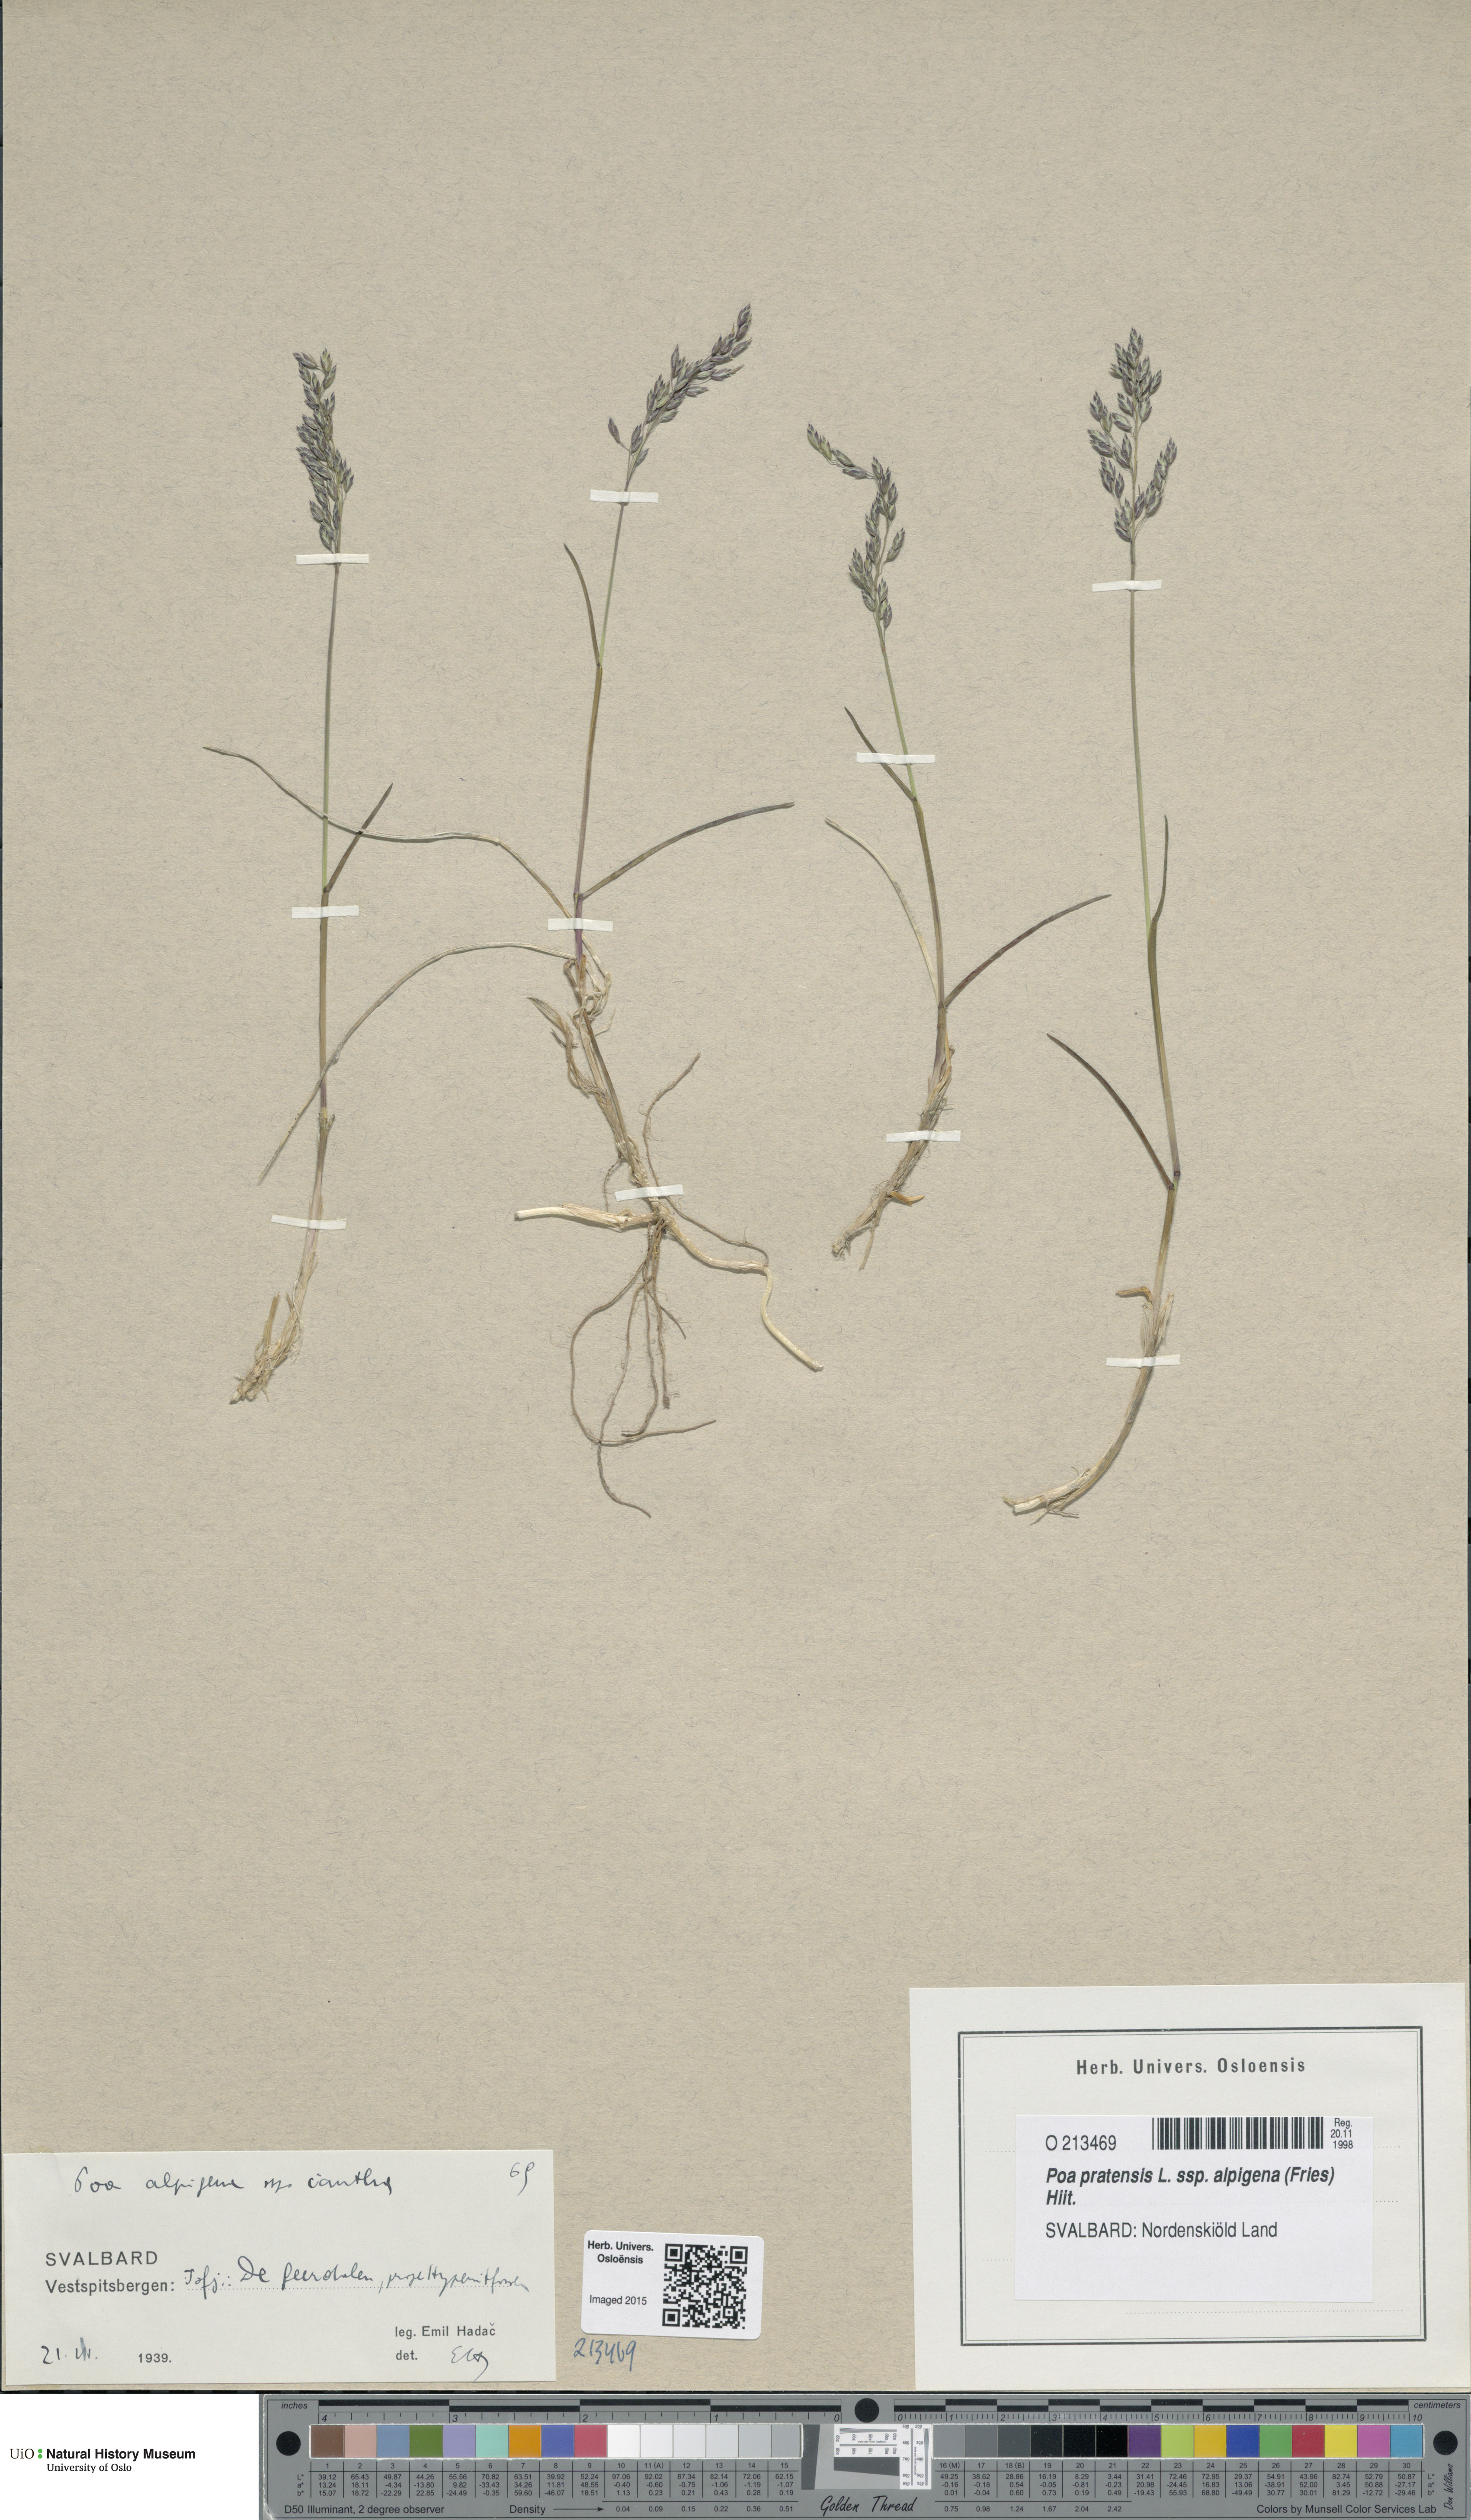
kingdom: Plantae
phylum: Tracheophyta
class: Liliopsida
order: Poales
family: Poaceae
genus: Poa
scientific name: Poa alpigena
